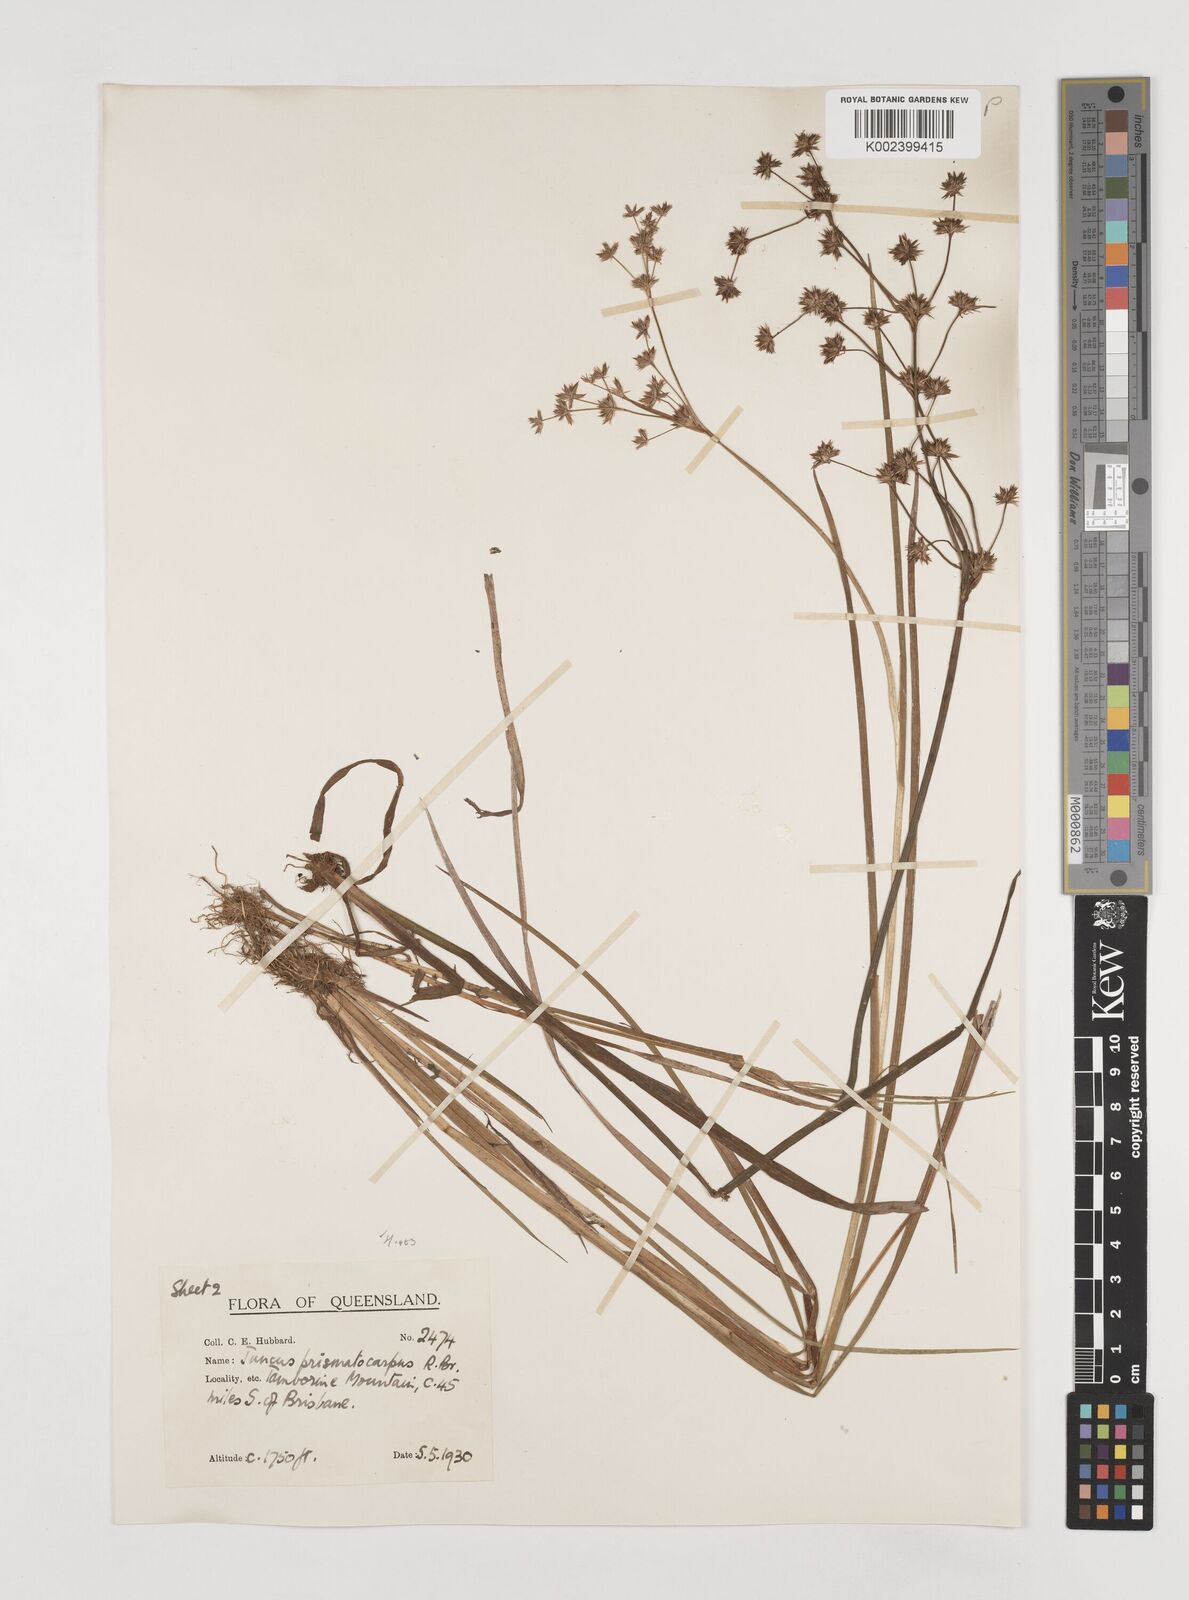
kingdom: Plantae
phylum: Tracheophyta
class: Liliopsida
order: Poales
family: Juncaceae
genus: Juncus
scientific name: Juncus prismatocarpus
